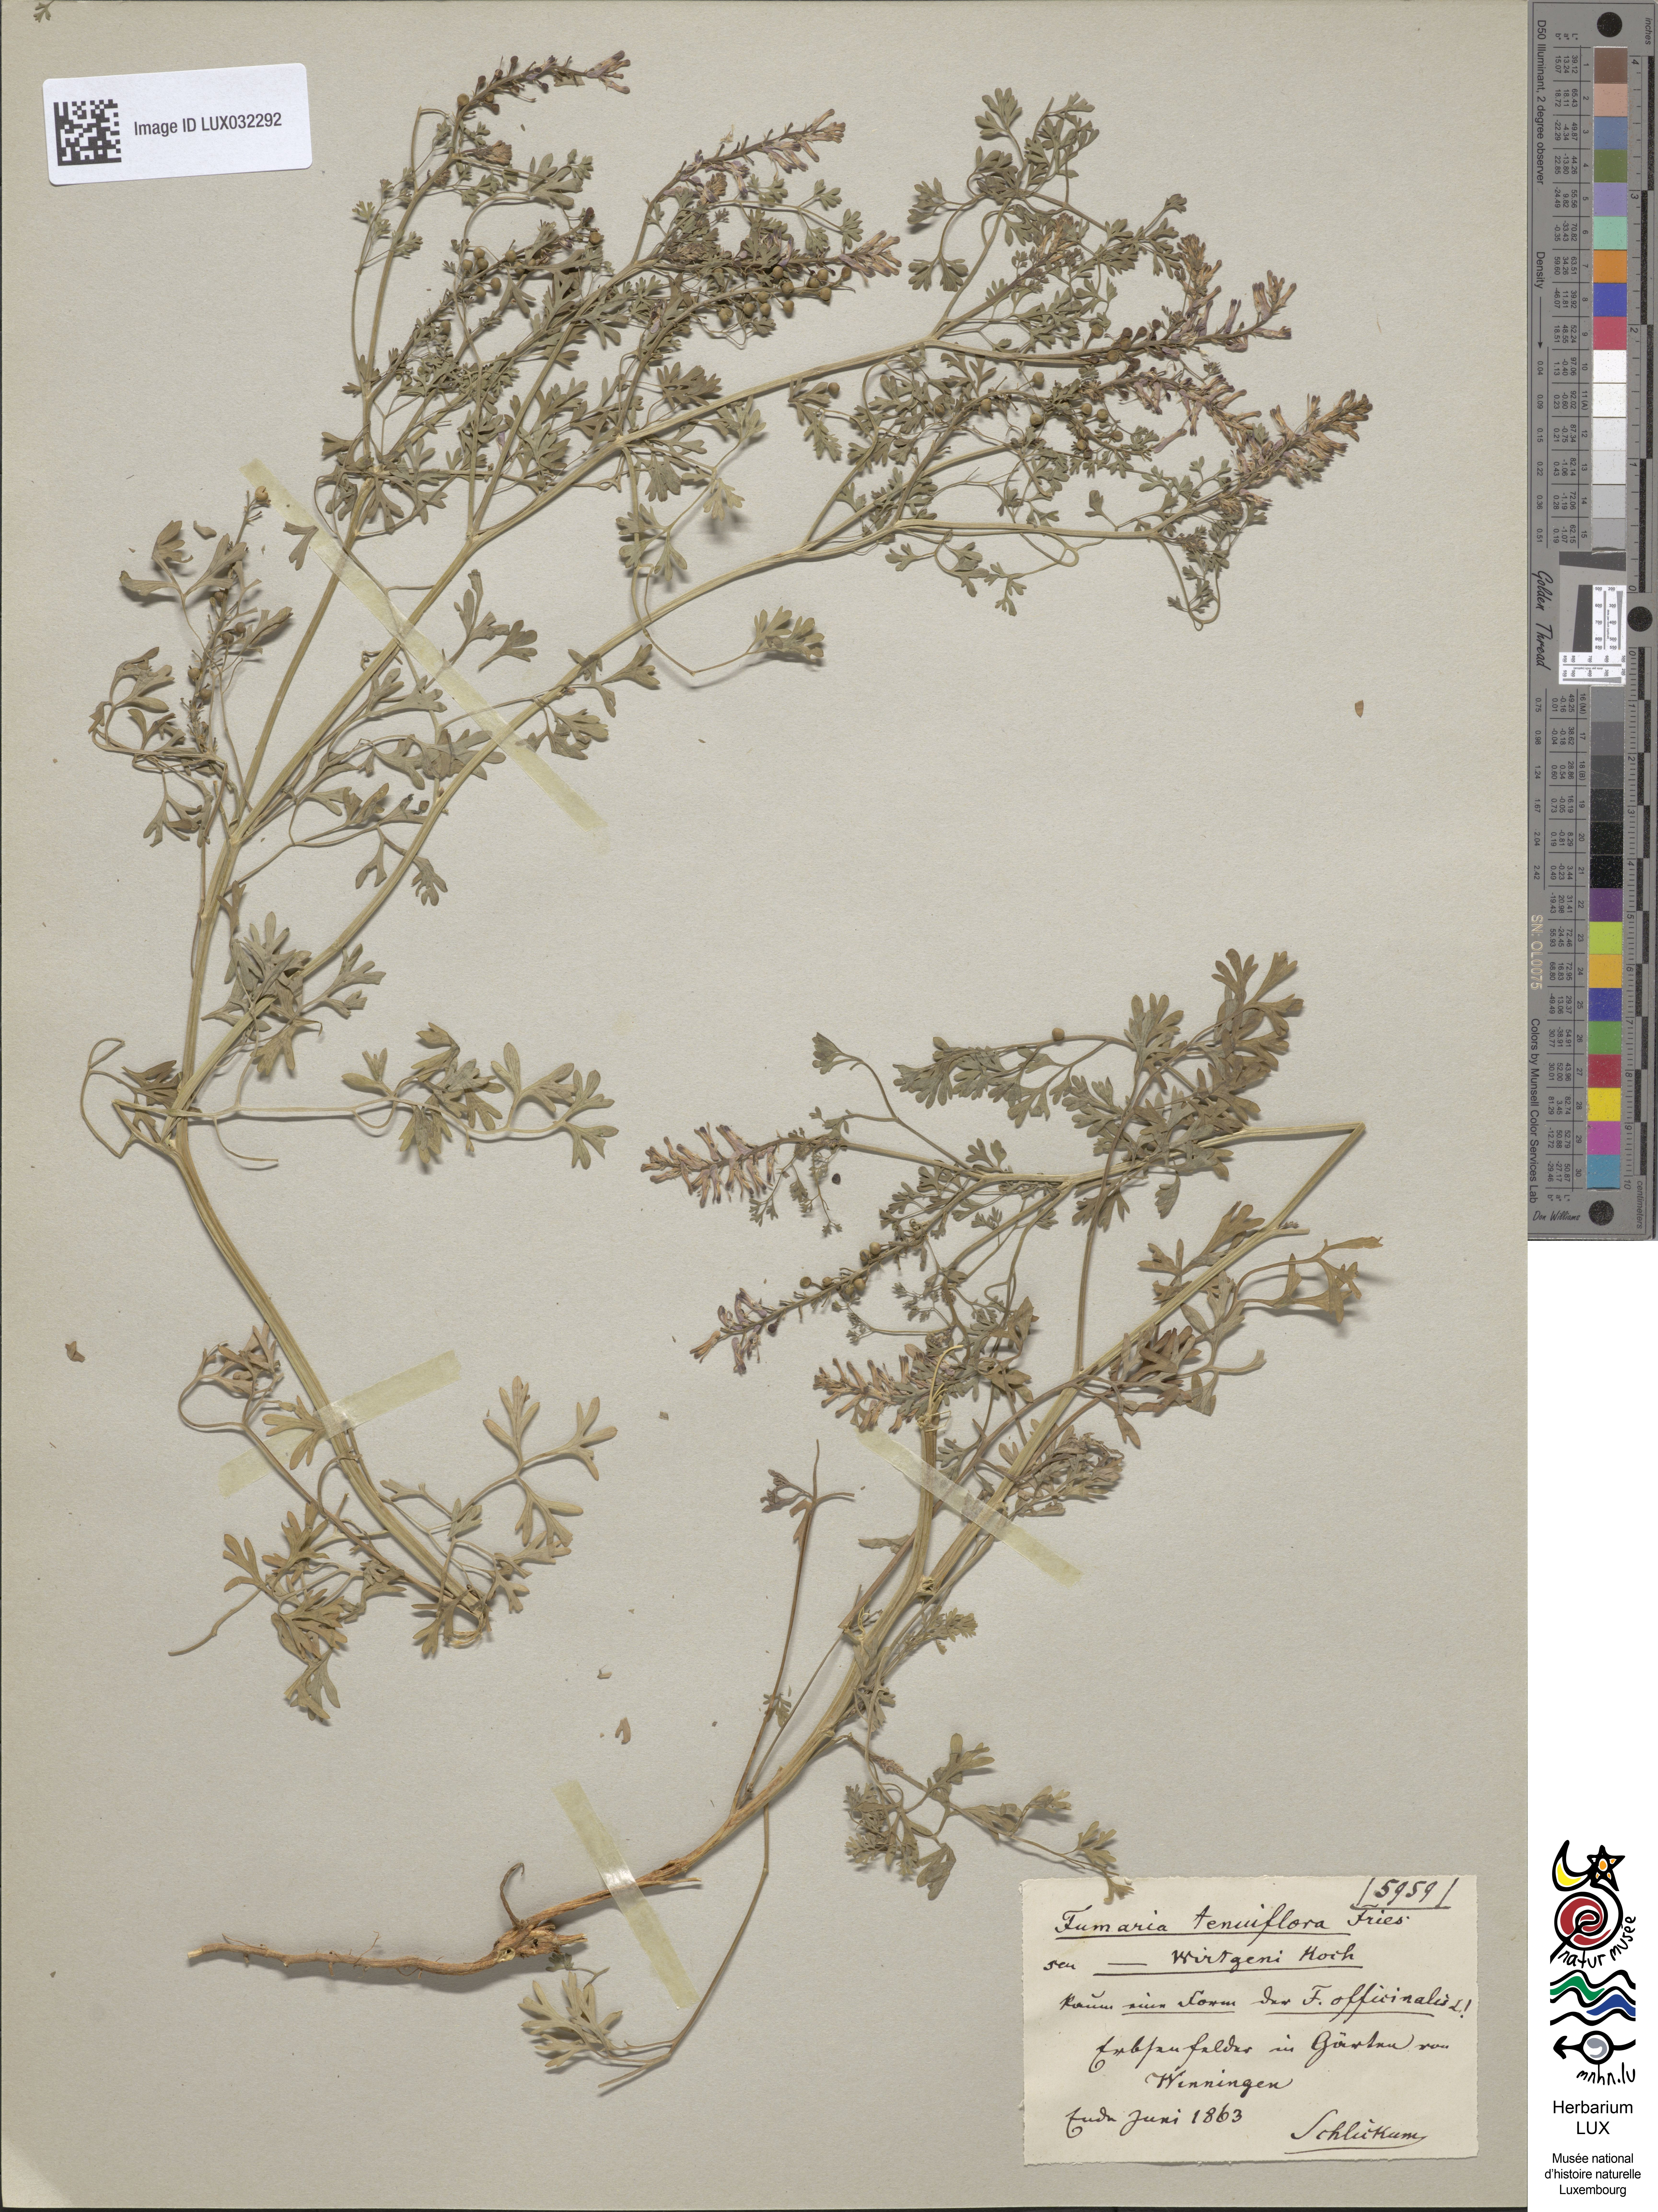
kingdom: Plantae
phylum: Tracheophyta
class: Magnoliopsida
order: Ranunculales
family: Papaveraceae
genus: Fumaria
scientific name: Fumaria wirtgenii
